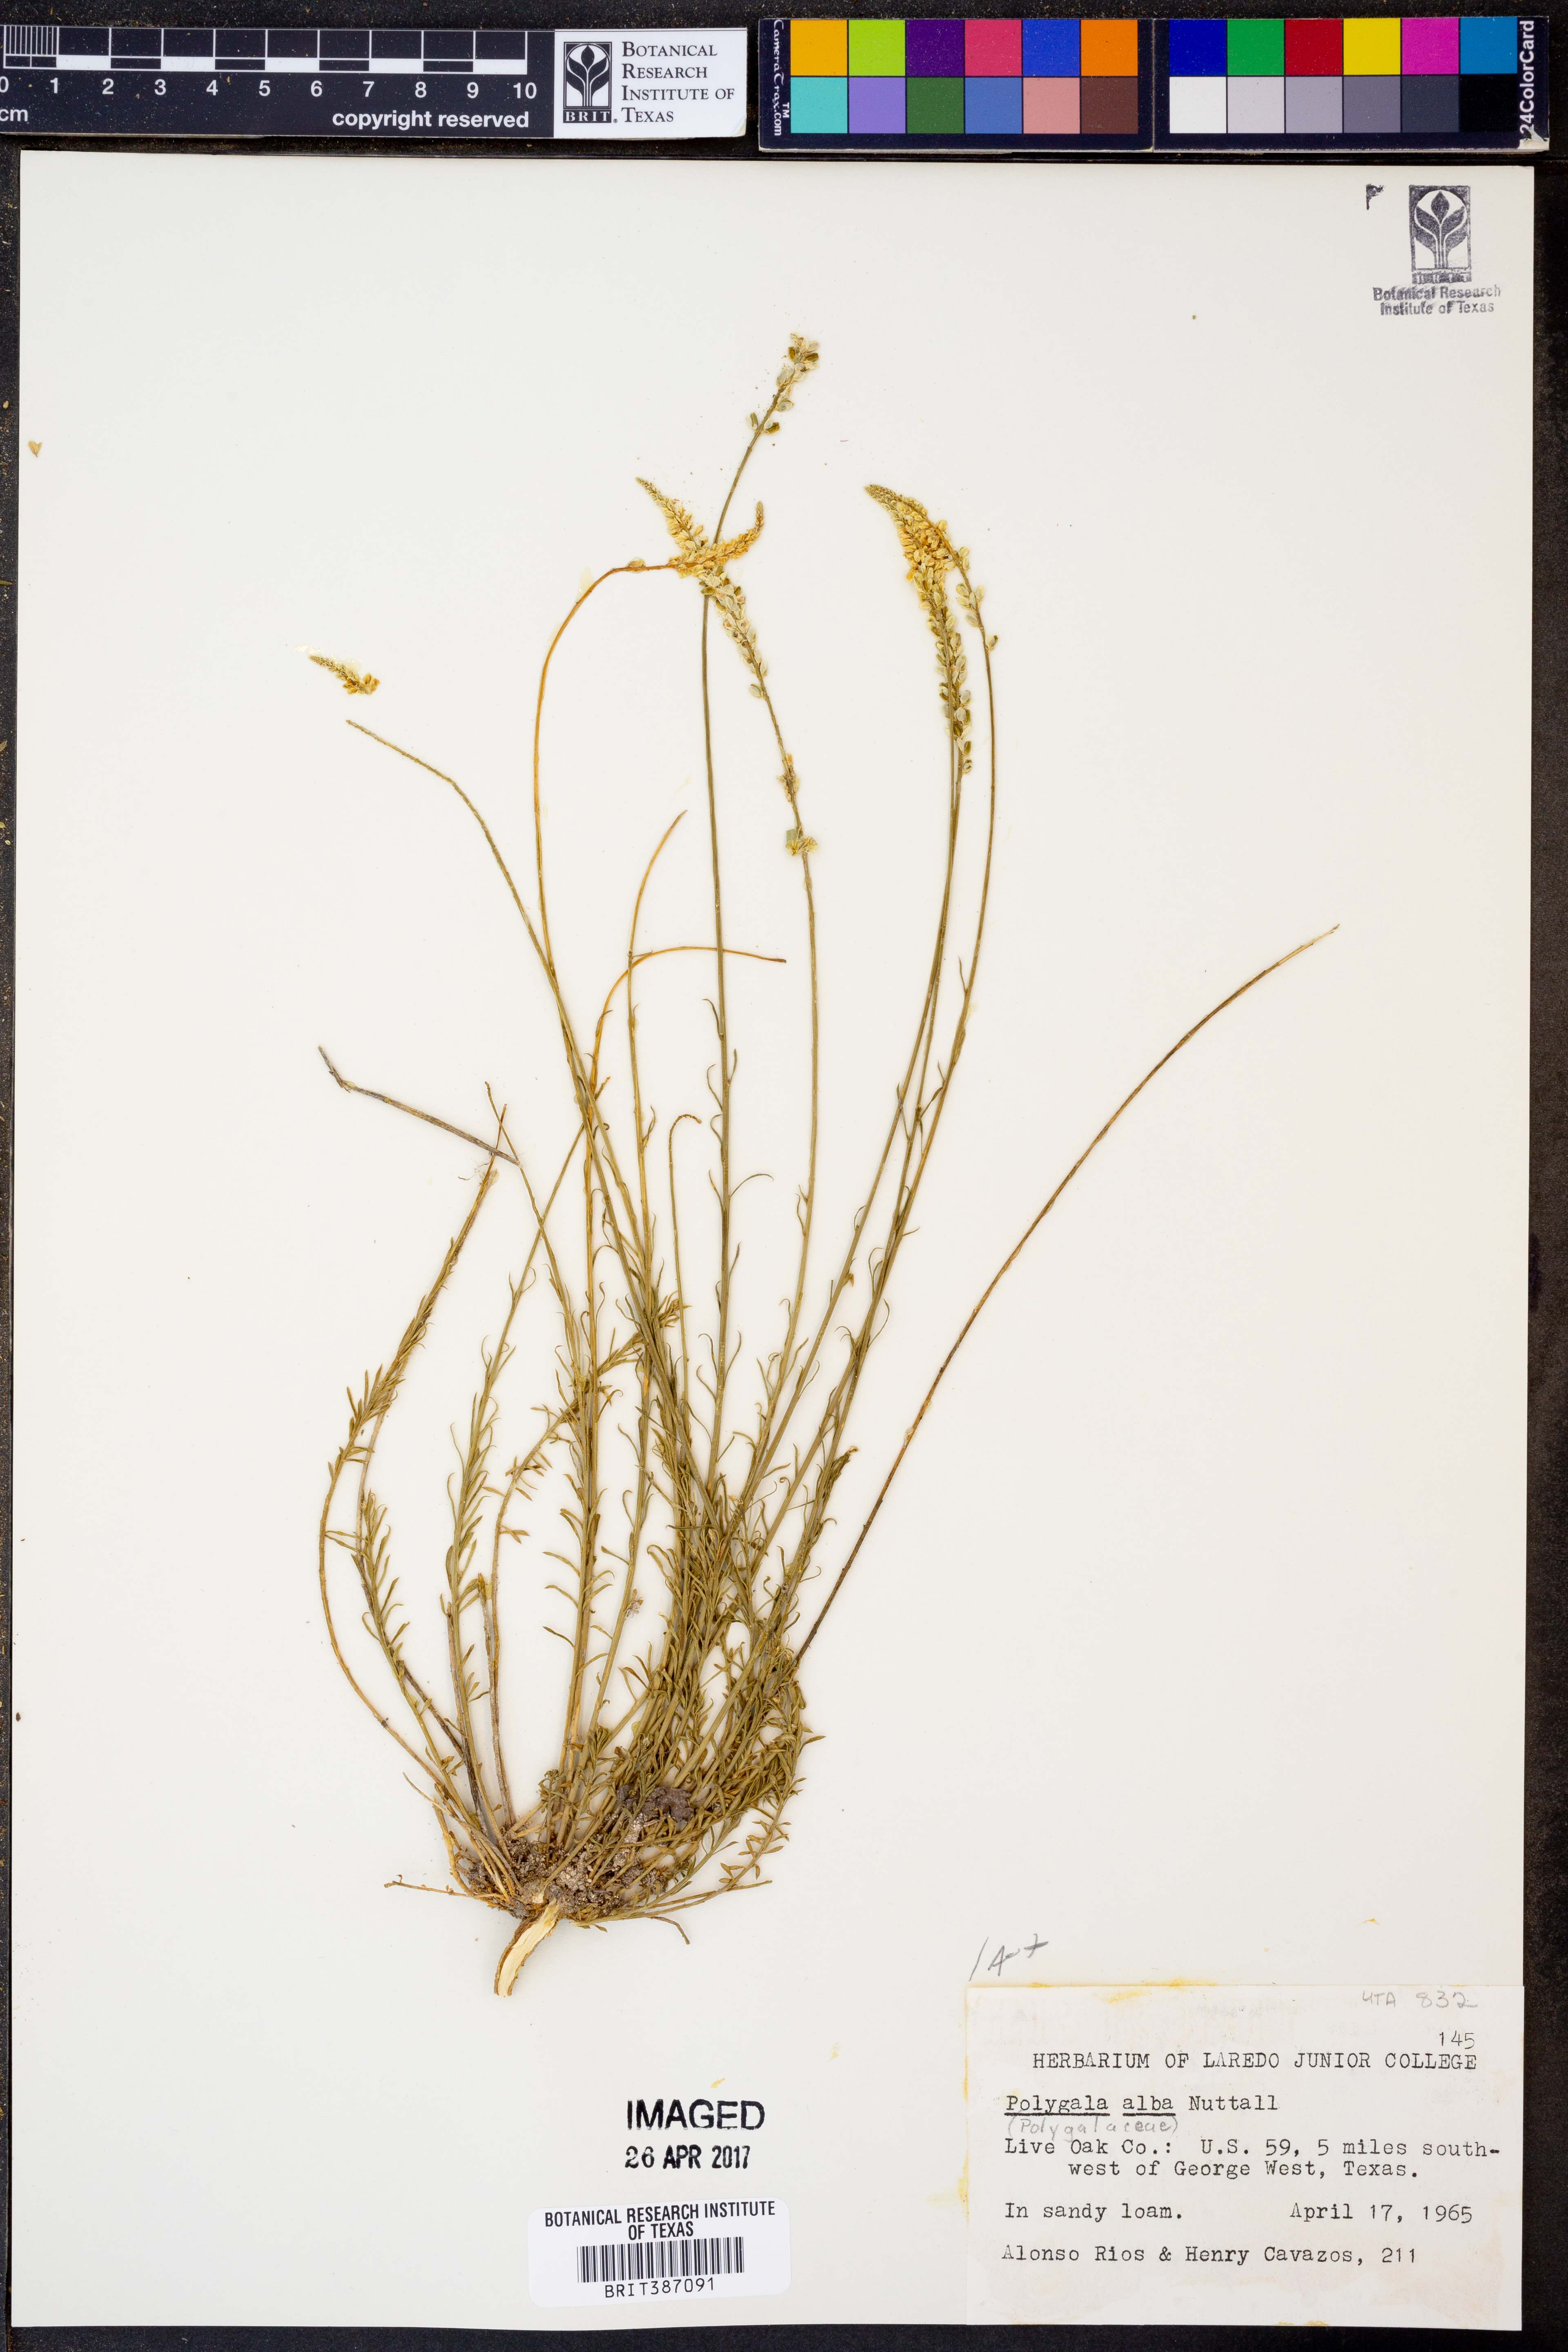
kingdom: Plantae
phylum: Tracheophyta
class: Magnoliopsida
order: Fabales
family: Polygalaceae
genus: Polygala
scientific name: Polygala alba
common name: White milkwort
